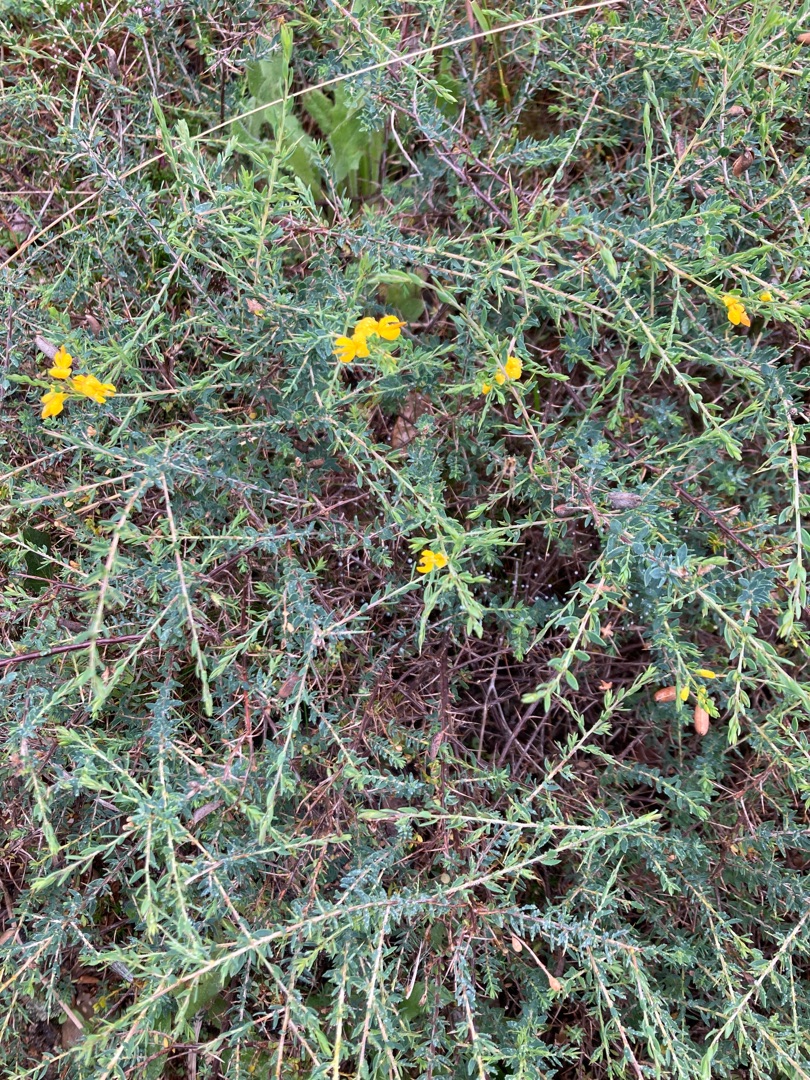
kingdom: Plantae
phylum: Tracheophyta
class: Magnoliopsida
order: Fabales
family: Fabaceae
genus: Genista
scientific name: Genista anglica
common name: Engelsk visse
